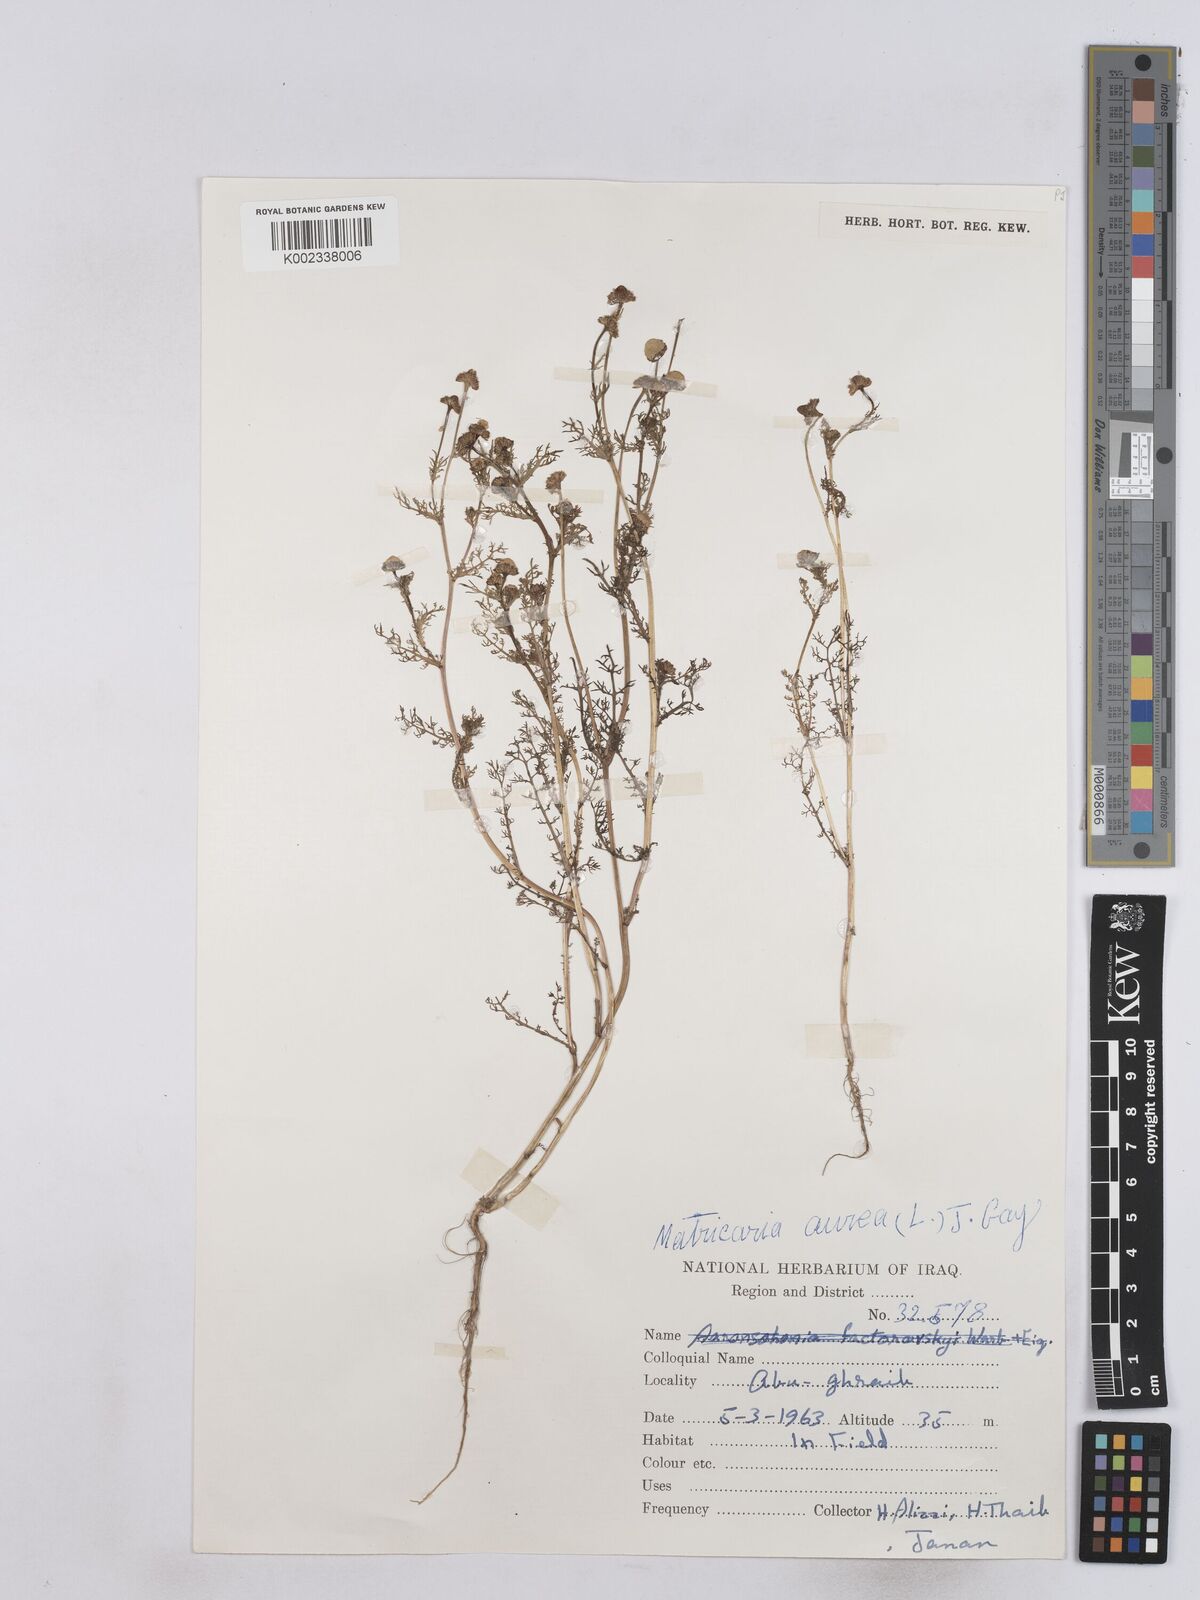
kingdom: Plantae
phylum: Tracheophyta
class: Magnoliopsida
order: Asterales
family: Asteraceae
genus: Matricaria
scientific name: Matricaria aurea
